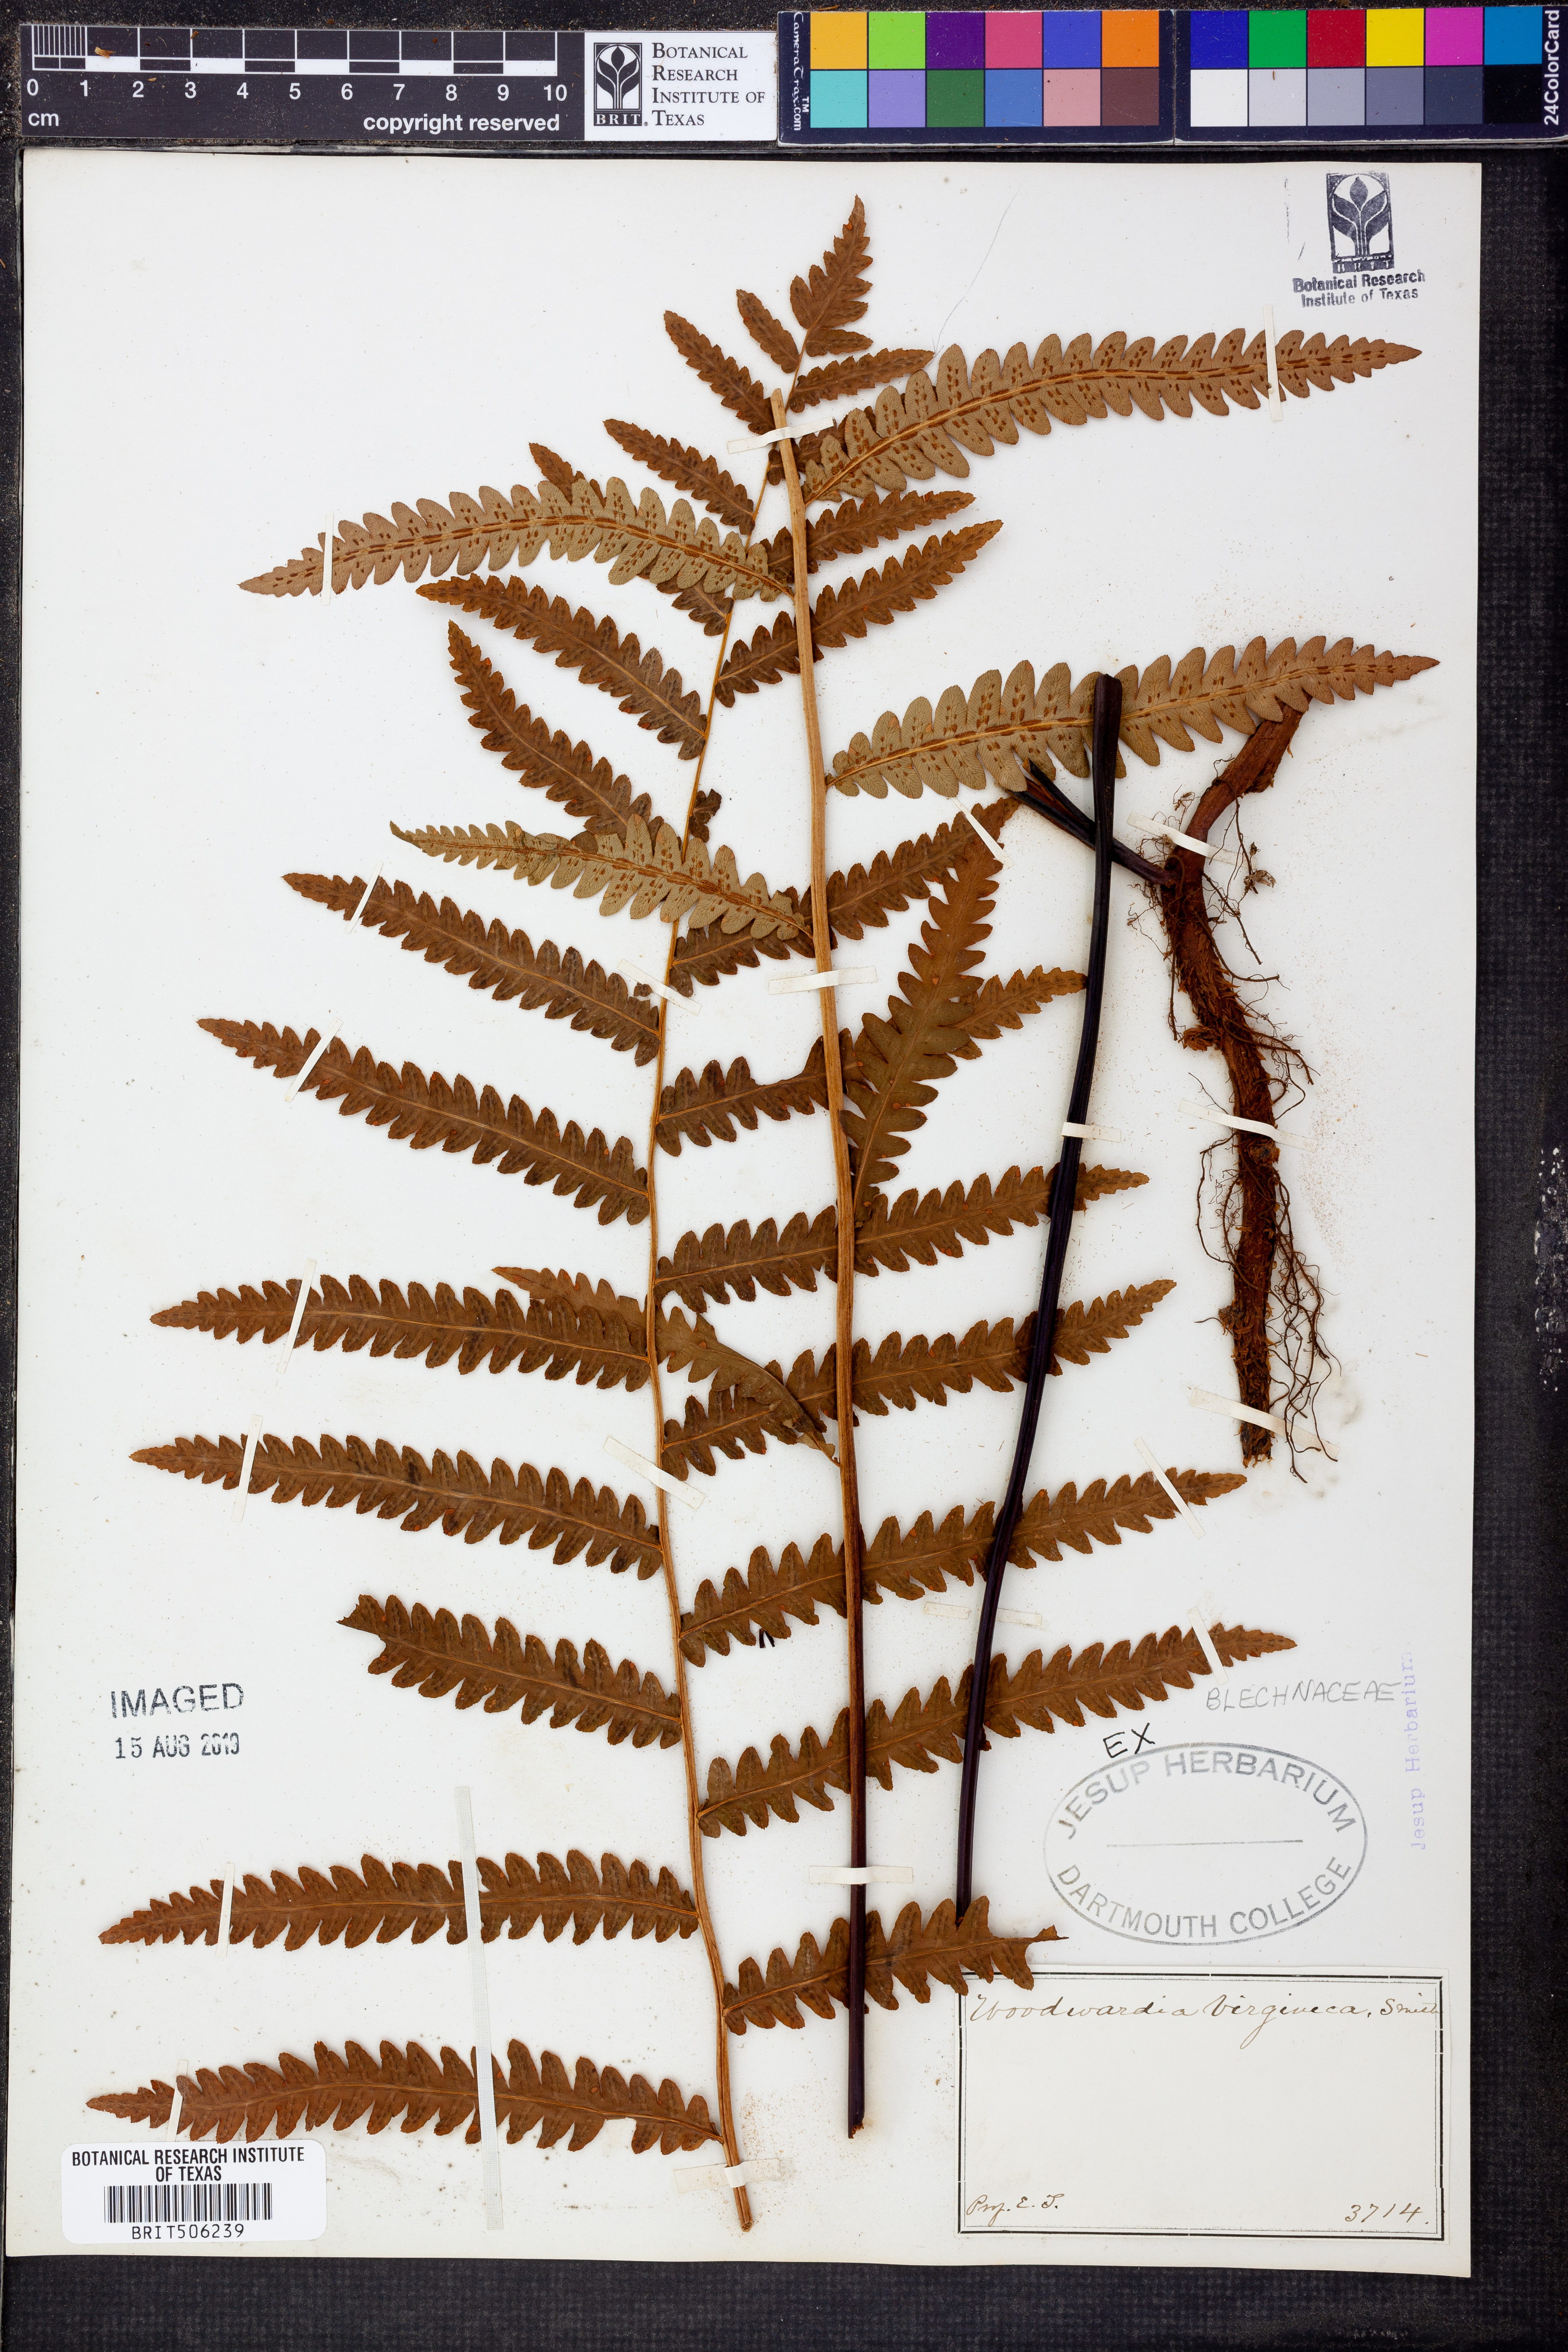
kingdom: Plantae
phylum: Tracheophyta
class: Polypodiopsida
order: Polypodiales
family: Blechnaceae
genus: Anchistea
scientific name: Anchistea virginica
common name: Virginia chain fern
